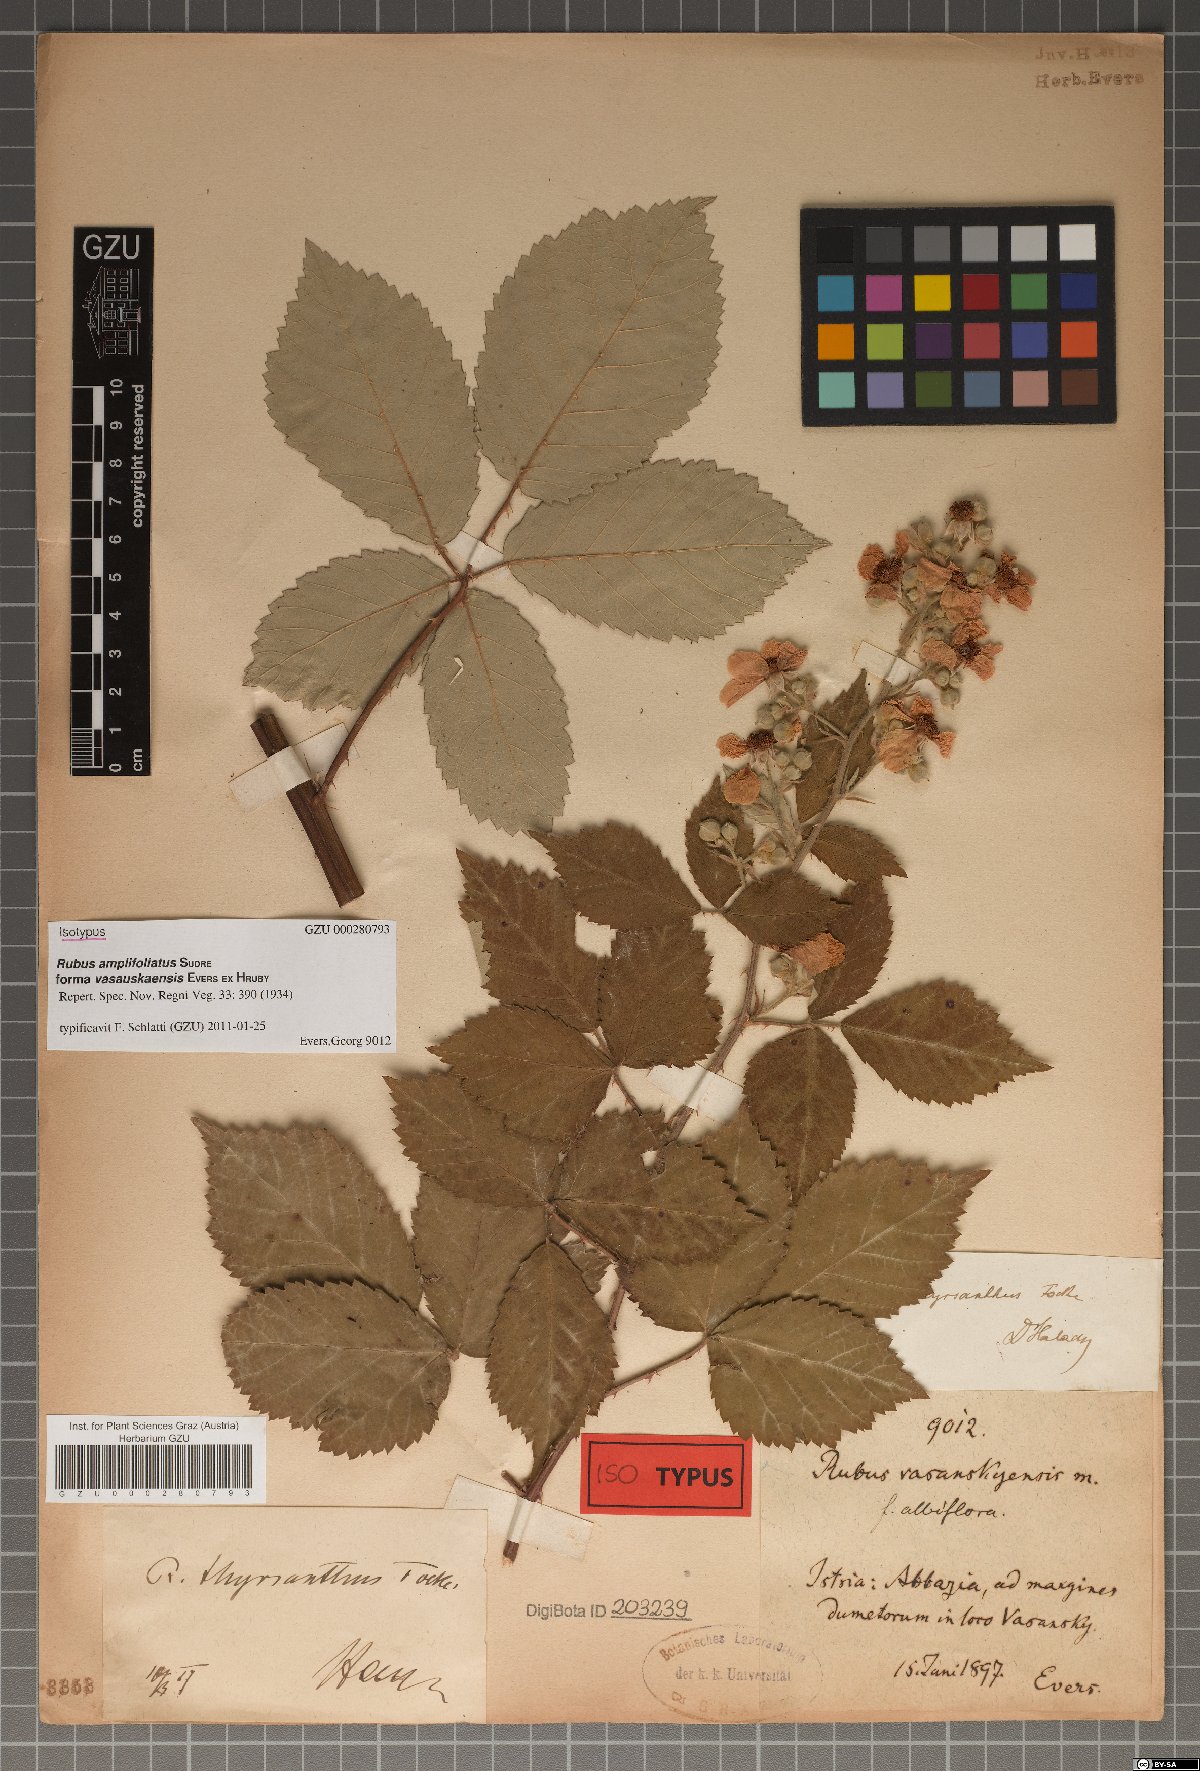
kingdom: Plantae
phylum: Tracheophyta
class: Magnoliopsida
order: Rosales
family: Rosaceae
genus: Rubus
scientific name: Rubus amplifoliatus
